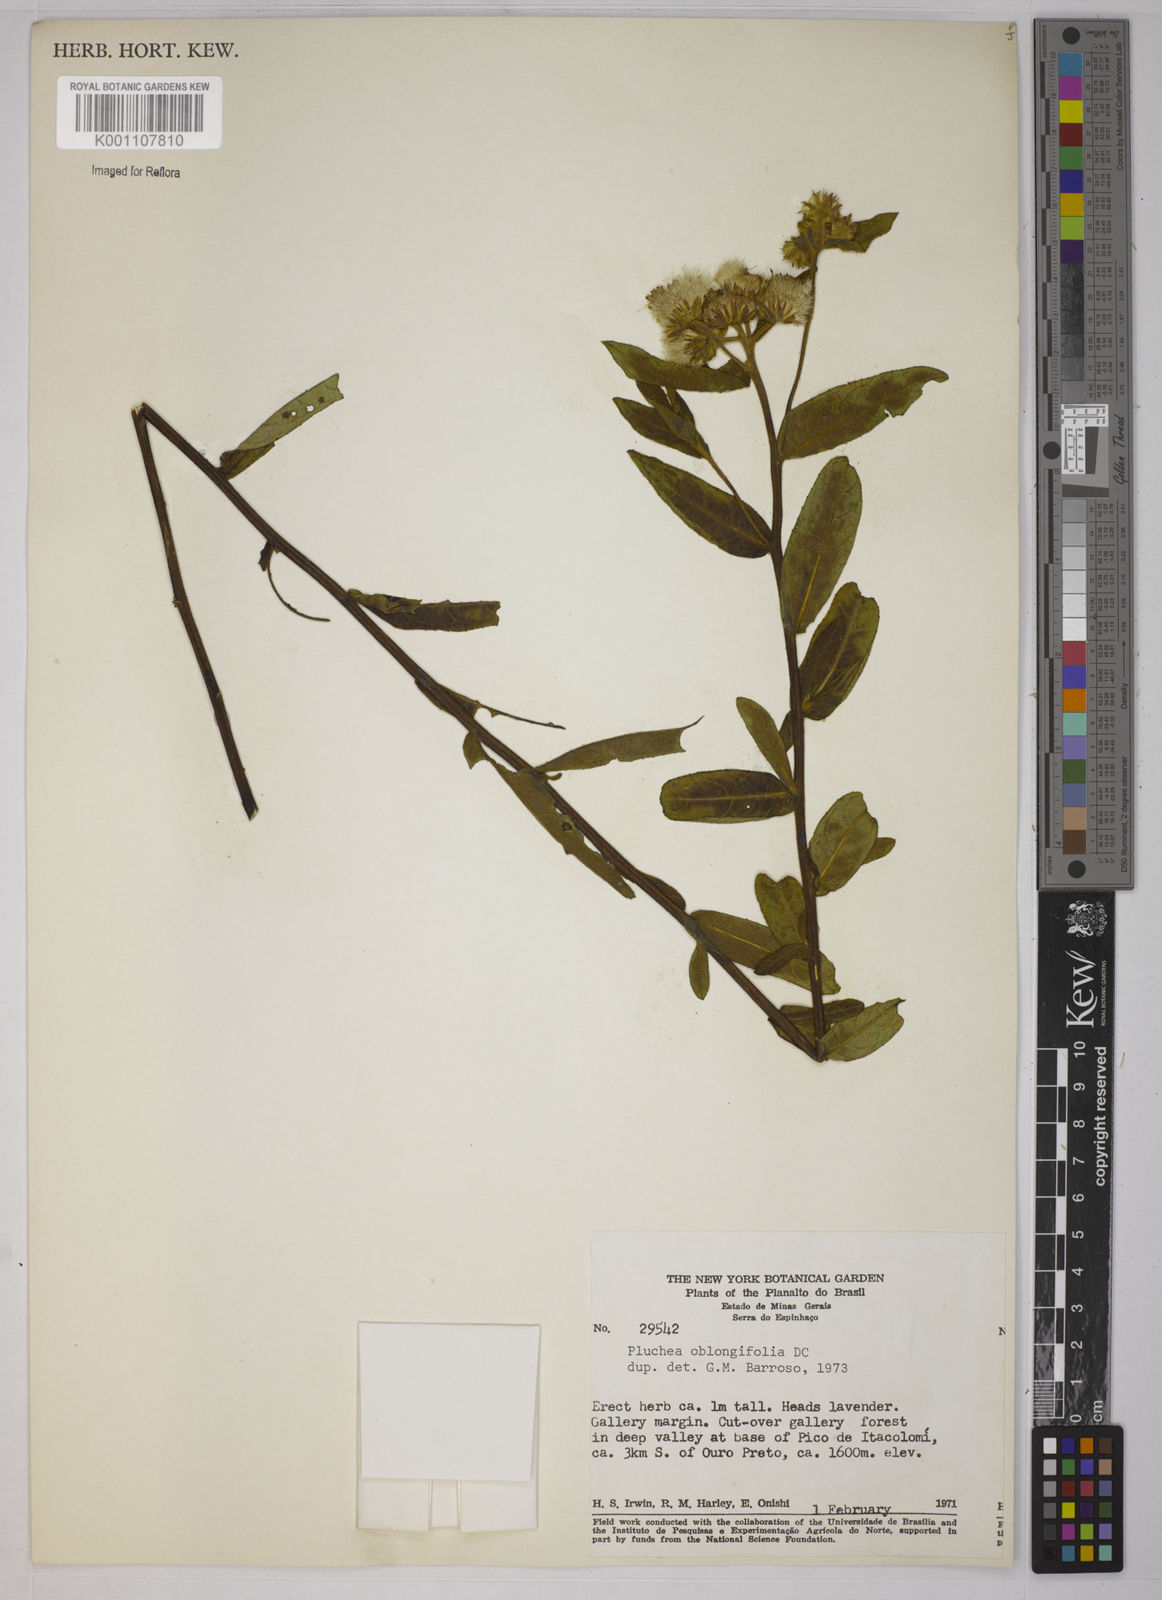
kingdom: Plantae
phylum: Tracheophyta
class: Magnoliopsida
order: Asterales
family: Asteraceae
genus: Pluchea
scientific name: Pluchea oblongifolia
